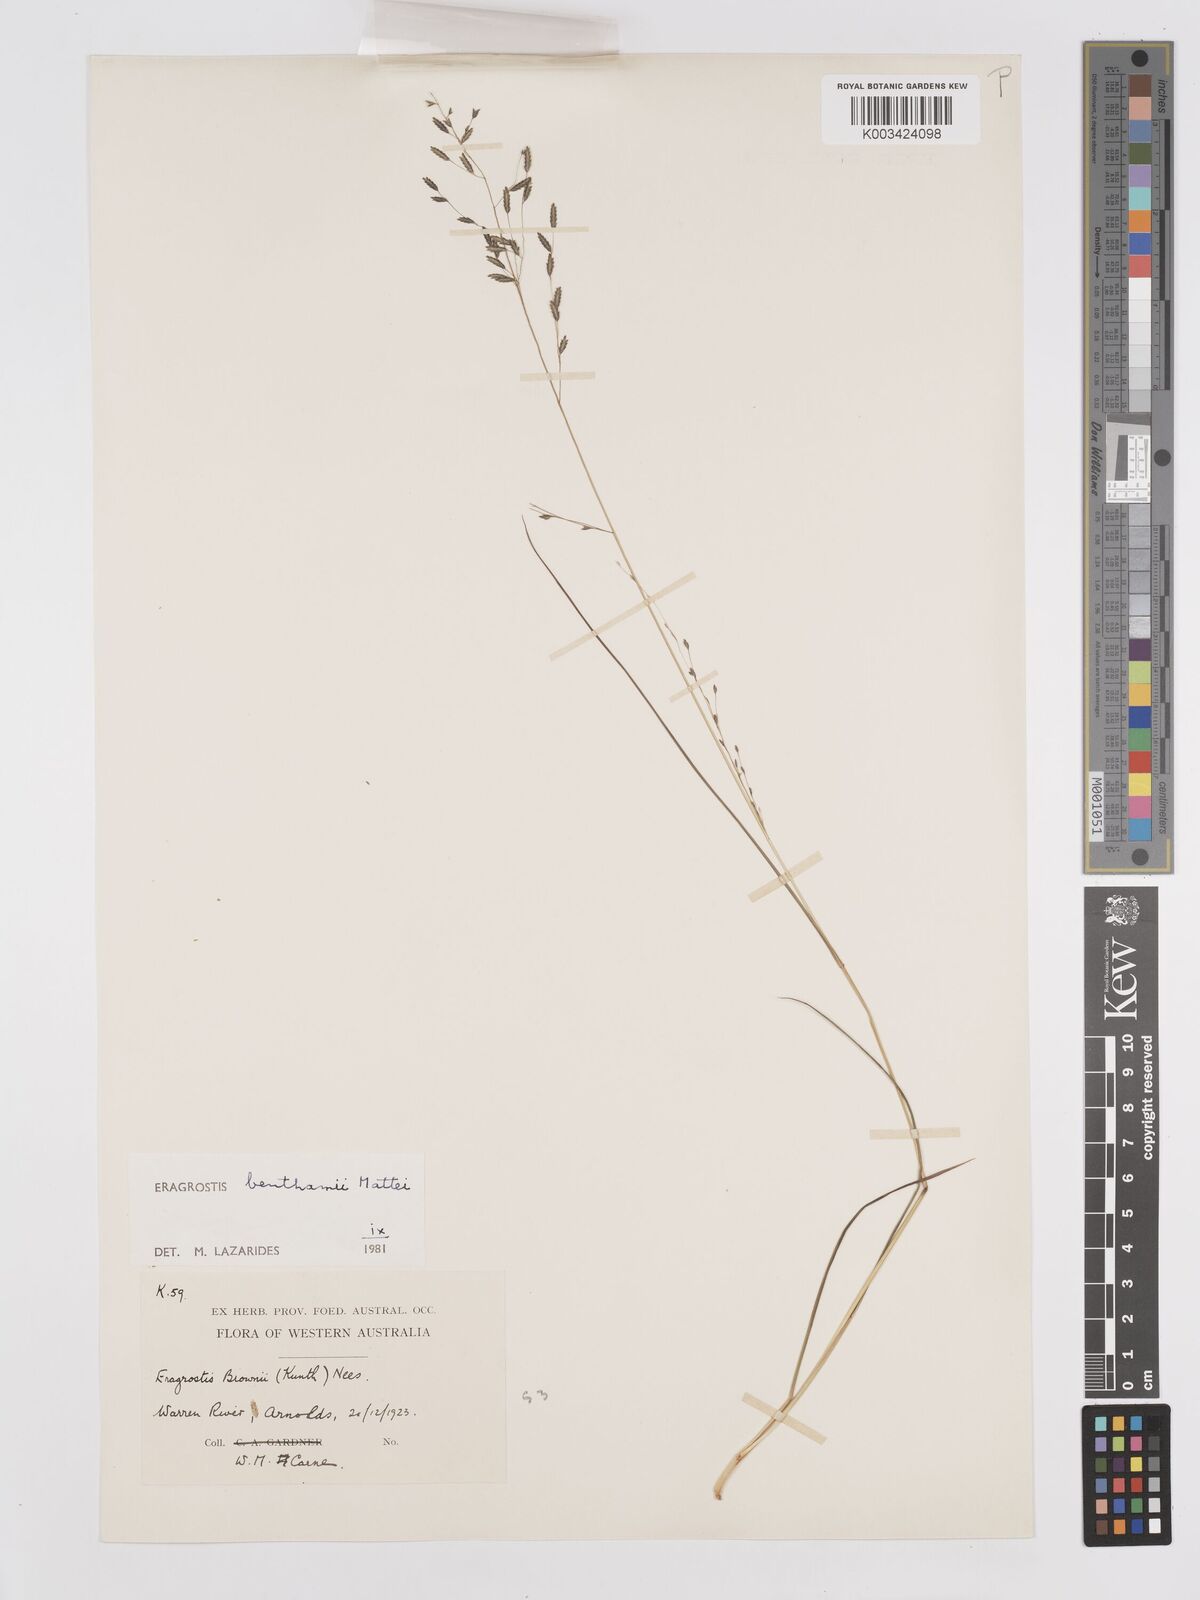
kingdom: Plantae
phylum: Tracheophyta
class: Liliopsida
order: Poales
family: Poaceae
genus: Eragrostis
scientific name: Eragrostis brownii
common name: Lovegrass
